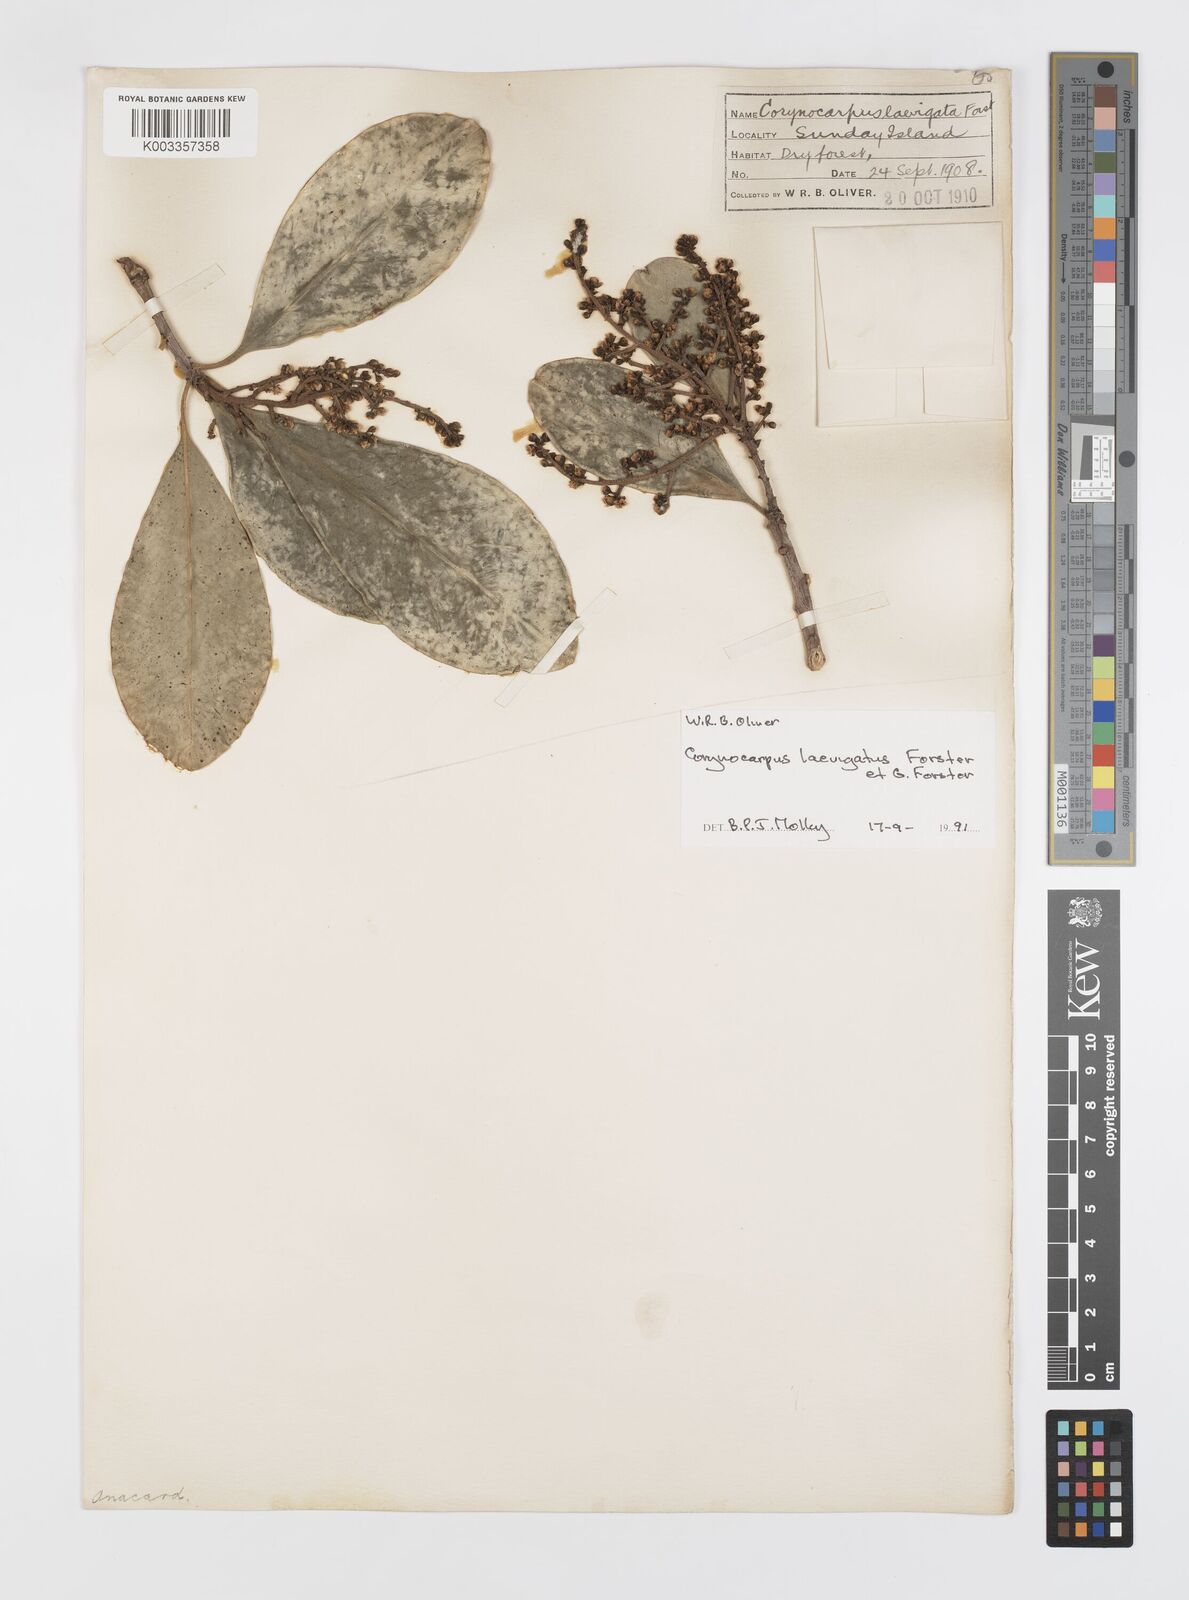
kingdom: Plantae
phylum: Tracheophyta
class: Magnoliopsida
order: Cucurbitales
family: Corynocarpaceae
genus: Corynocarpus
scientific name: Corynocarpus
